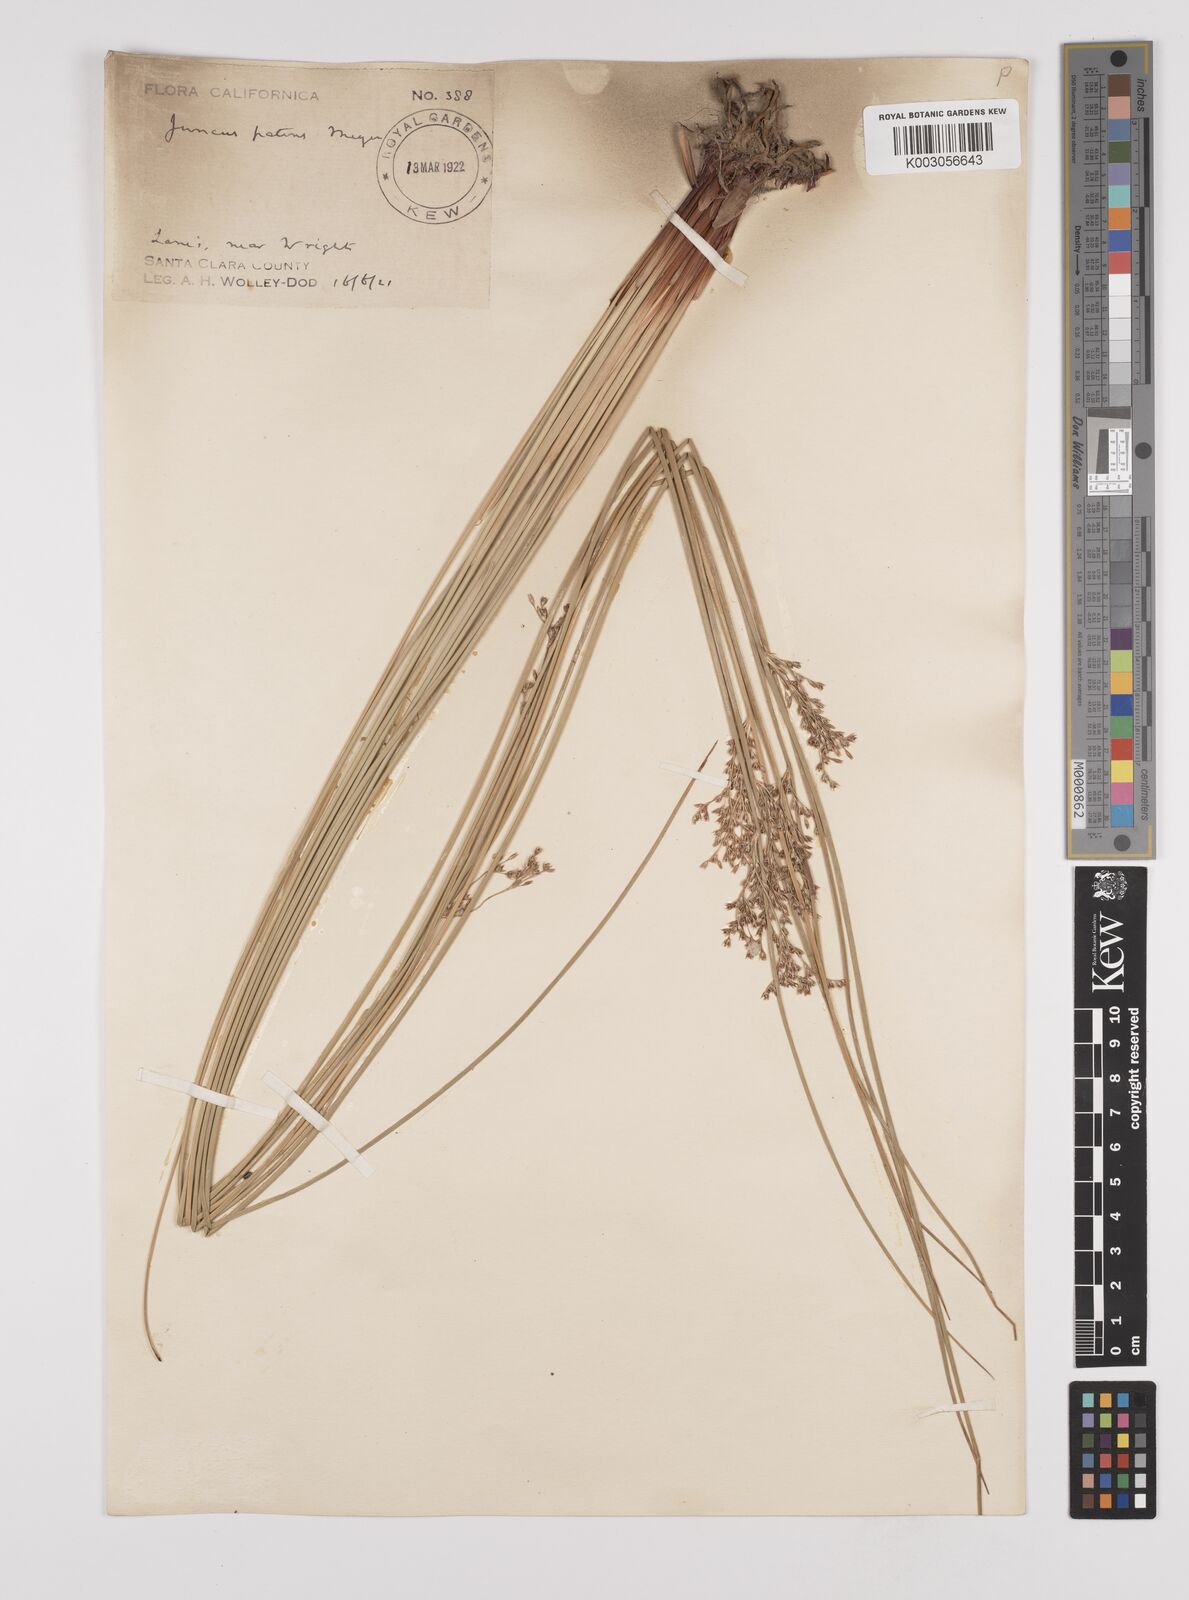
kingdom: Plantae
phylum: Tracheophyta
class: Liliopsida
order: Poales
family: Juncaceae
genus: Juncus
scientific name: Juncus patens
